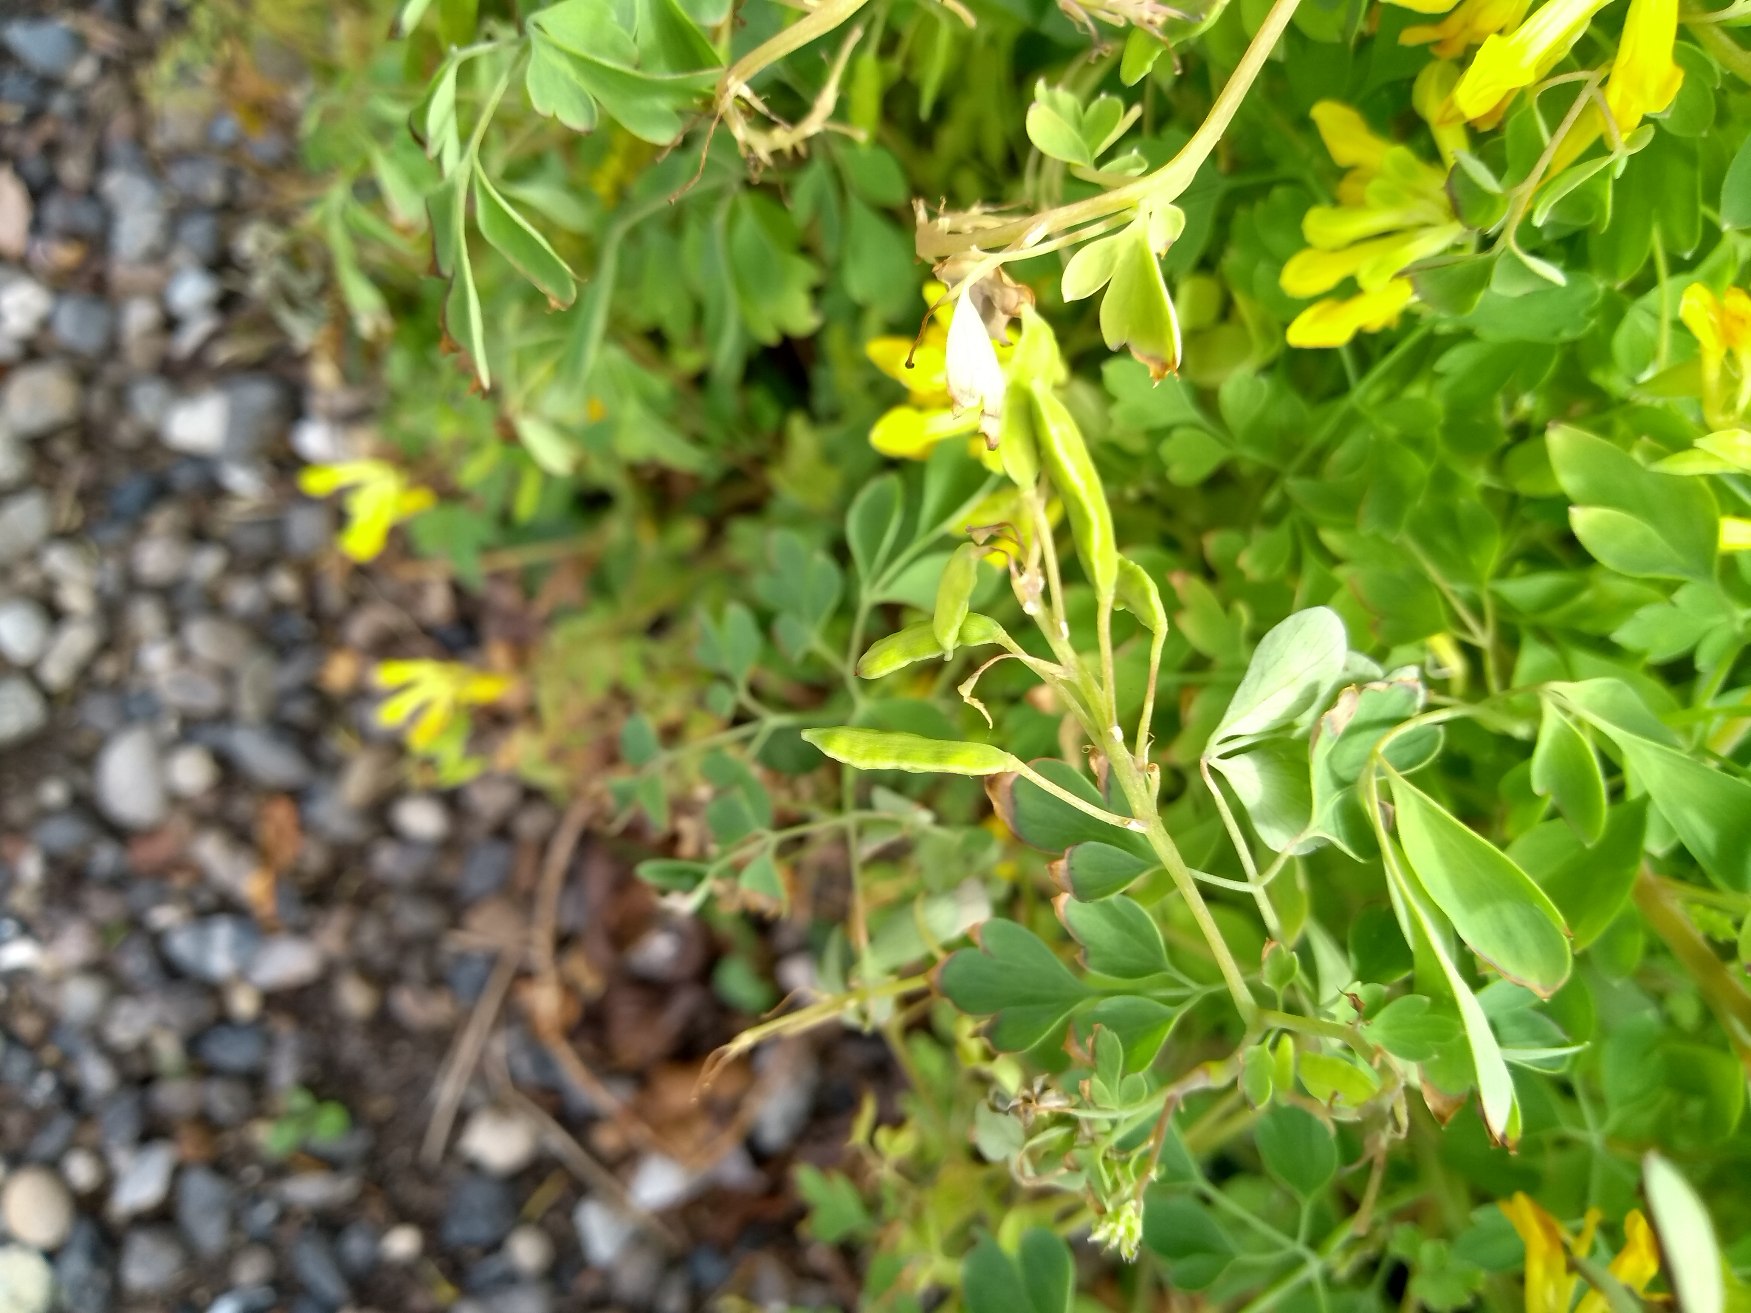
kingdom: Plantae
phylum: Tracheophyta
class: Magnoliopsida
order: Ranunculales
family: Papaveraceae
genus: Pseudofumaria
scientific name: Pseudofumaria lutea
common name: Gul lærkespore
